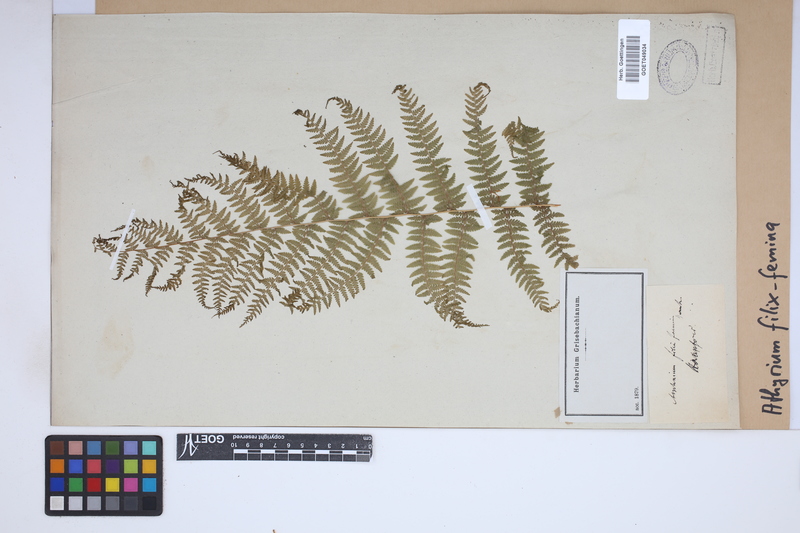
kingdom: Plantae
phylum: Tracheophyta
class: Polypodiopsida
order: Polypodiales
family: Athyriaceae
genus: Athyrium
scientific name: Athyrium filix-femina
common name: Lady fern
